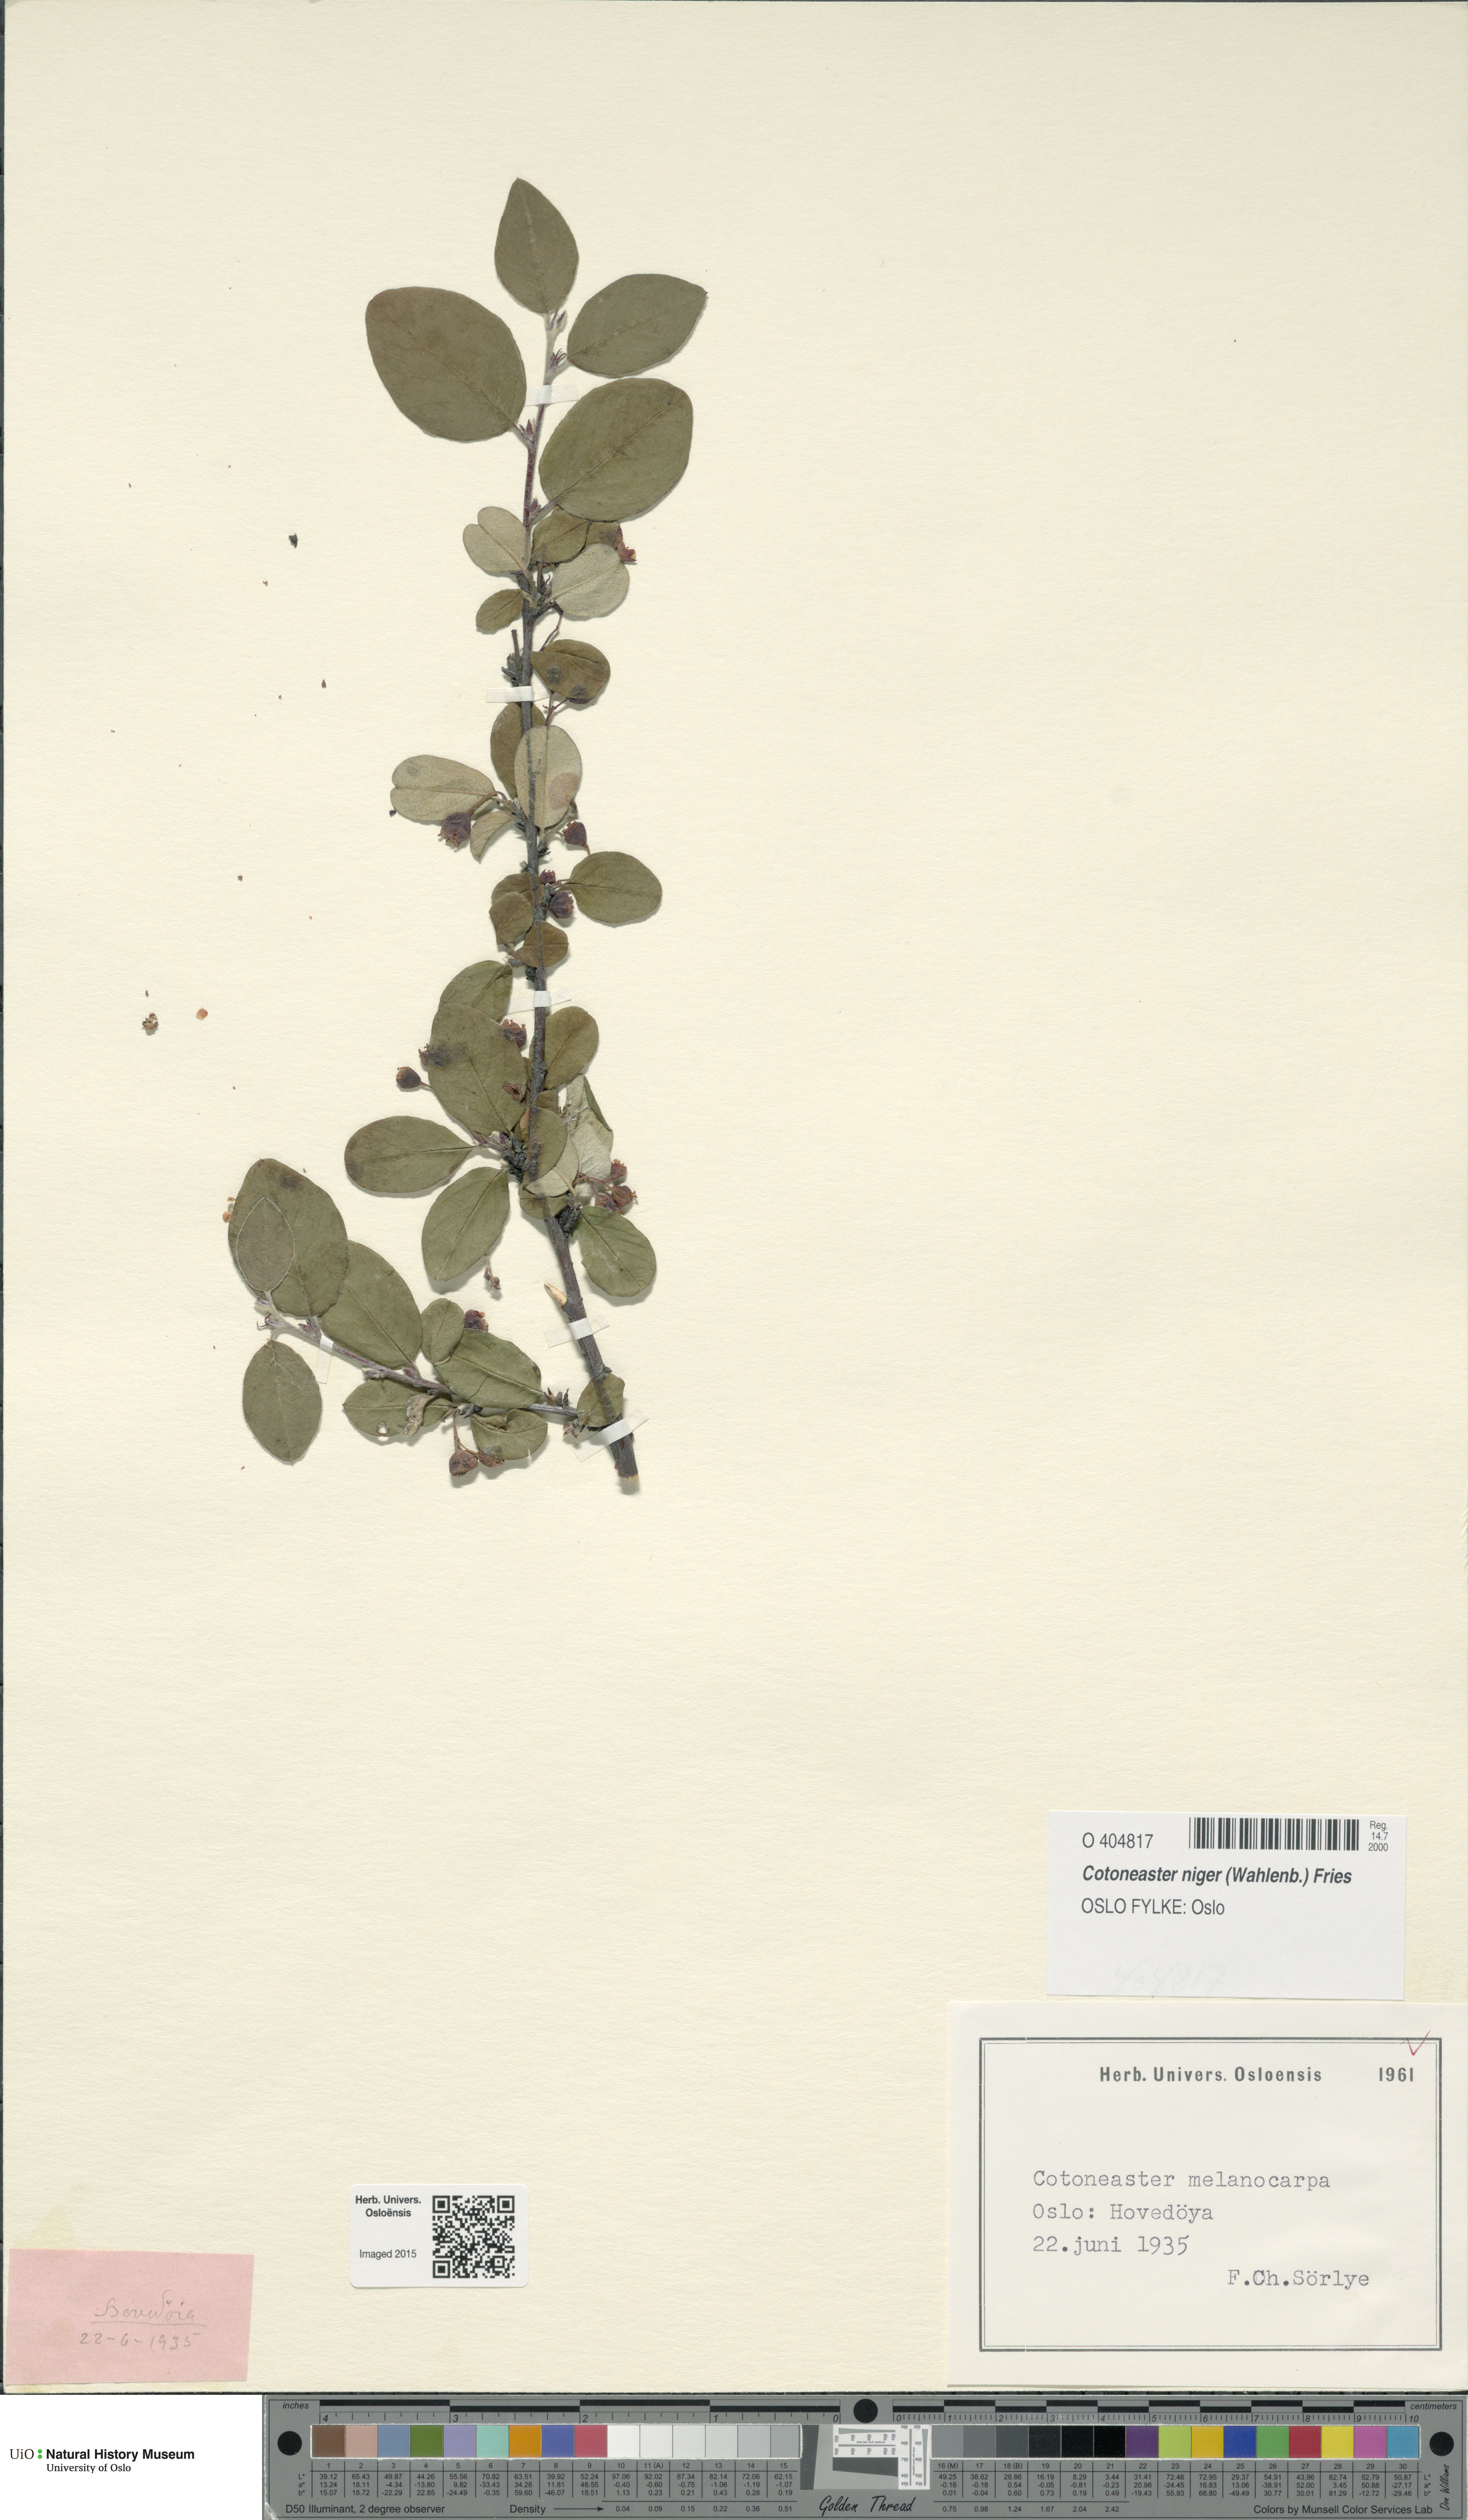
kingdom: Plantae
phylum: Tracheophyta
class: Magnoliopsida
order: Rosales
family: Rosaceae
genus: Cotoneaster
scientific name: Cotoneaster niger
